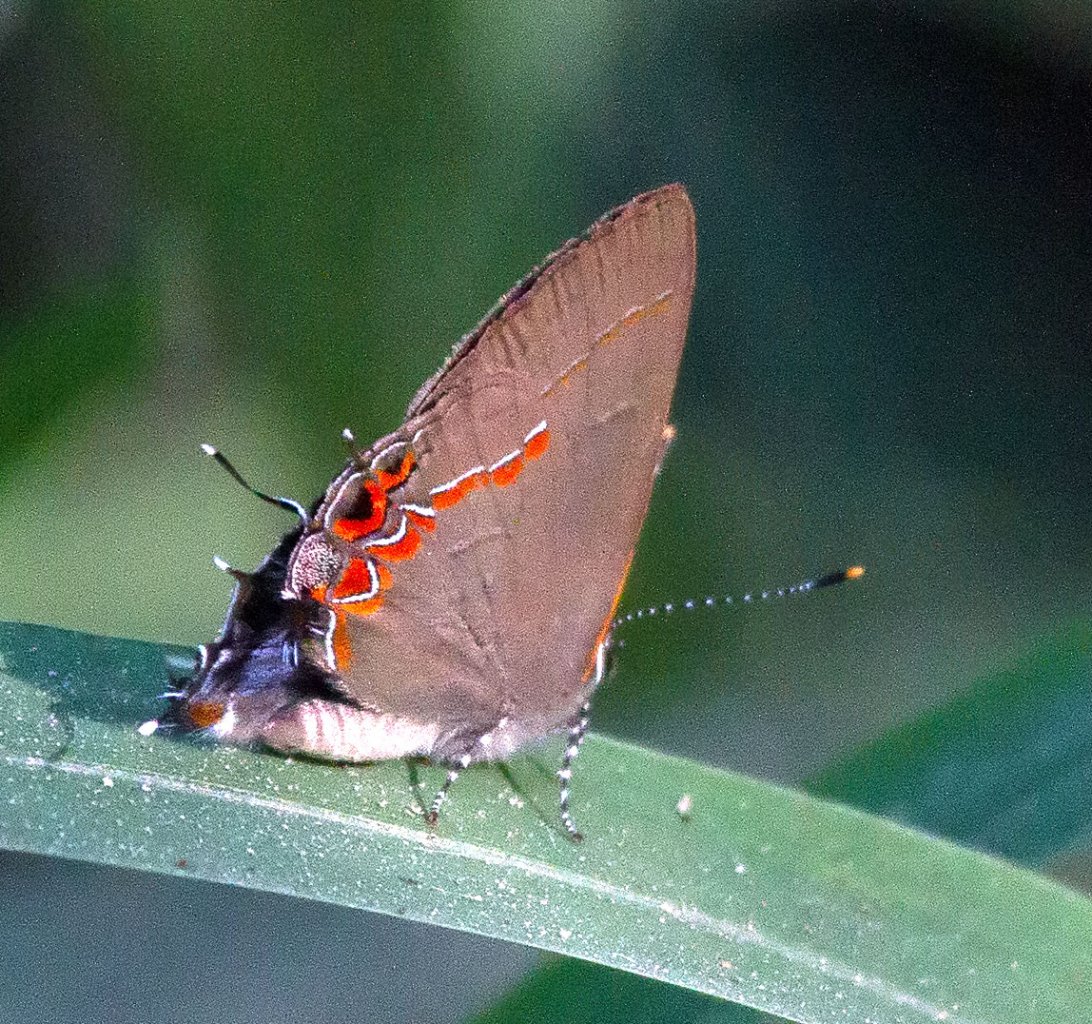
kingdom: Animalia
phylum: Arthropoda
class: Insecta
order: Lepidoptera
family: Lycaenidae
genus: Calycopis
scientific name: Calycopis isobeon
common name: Dusky-blue Groundstreak
